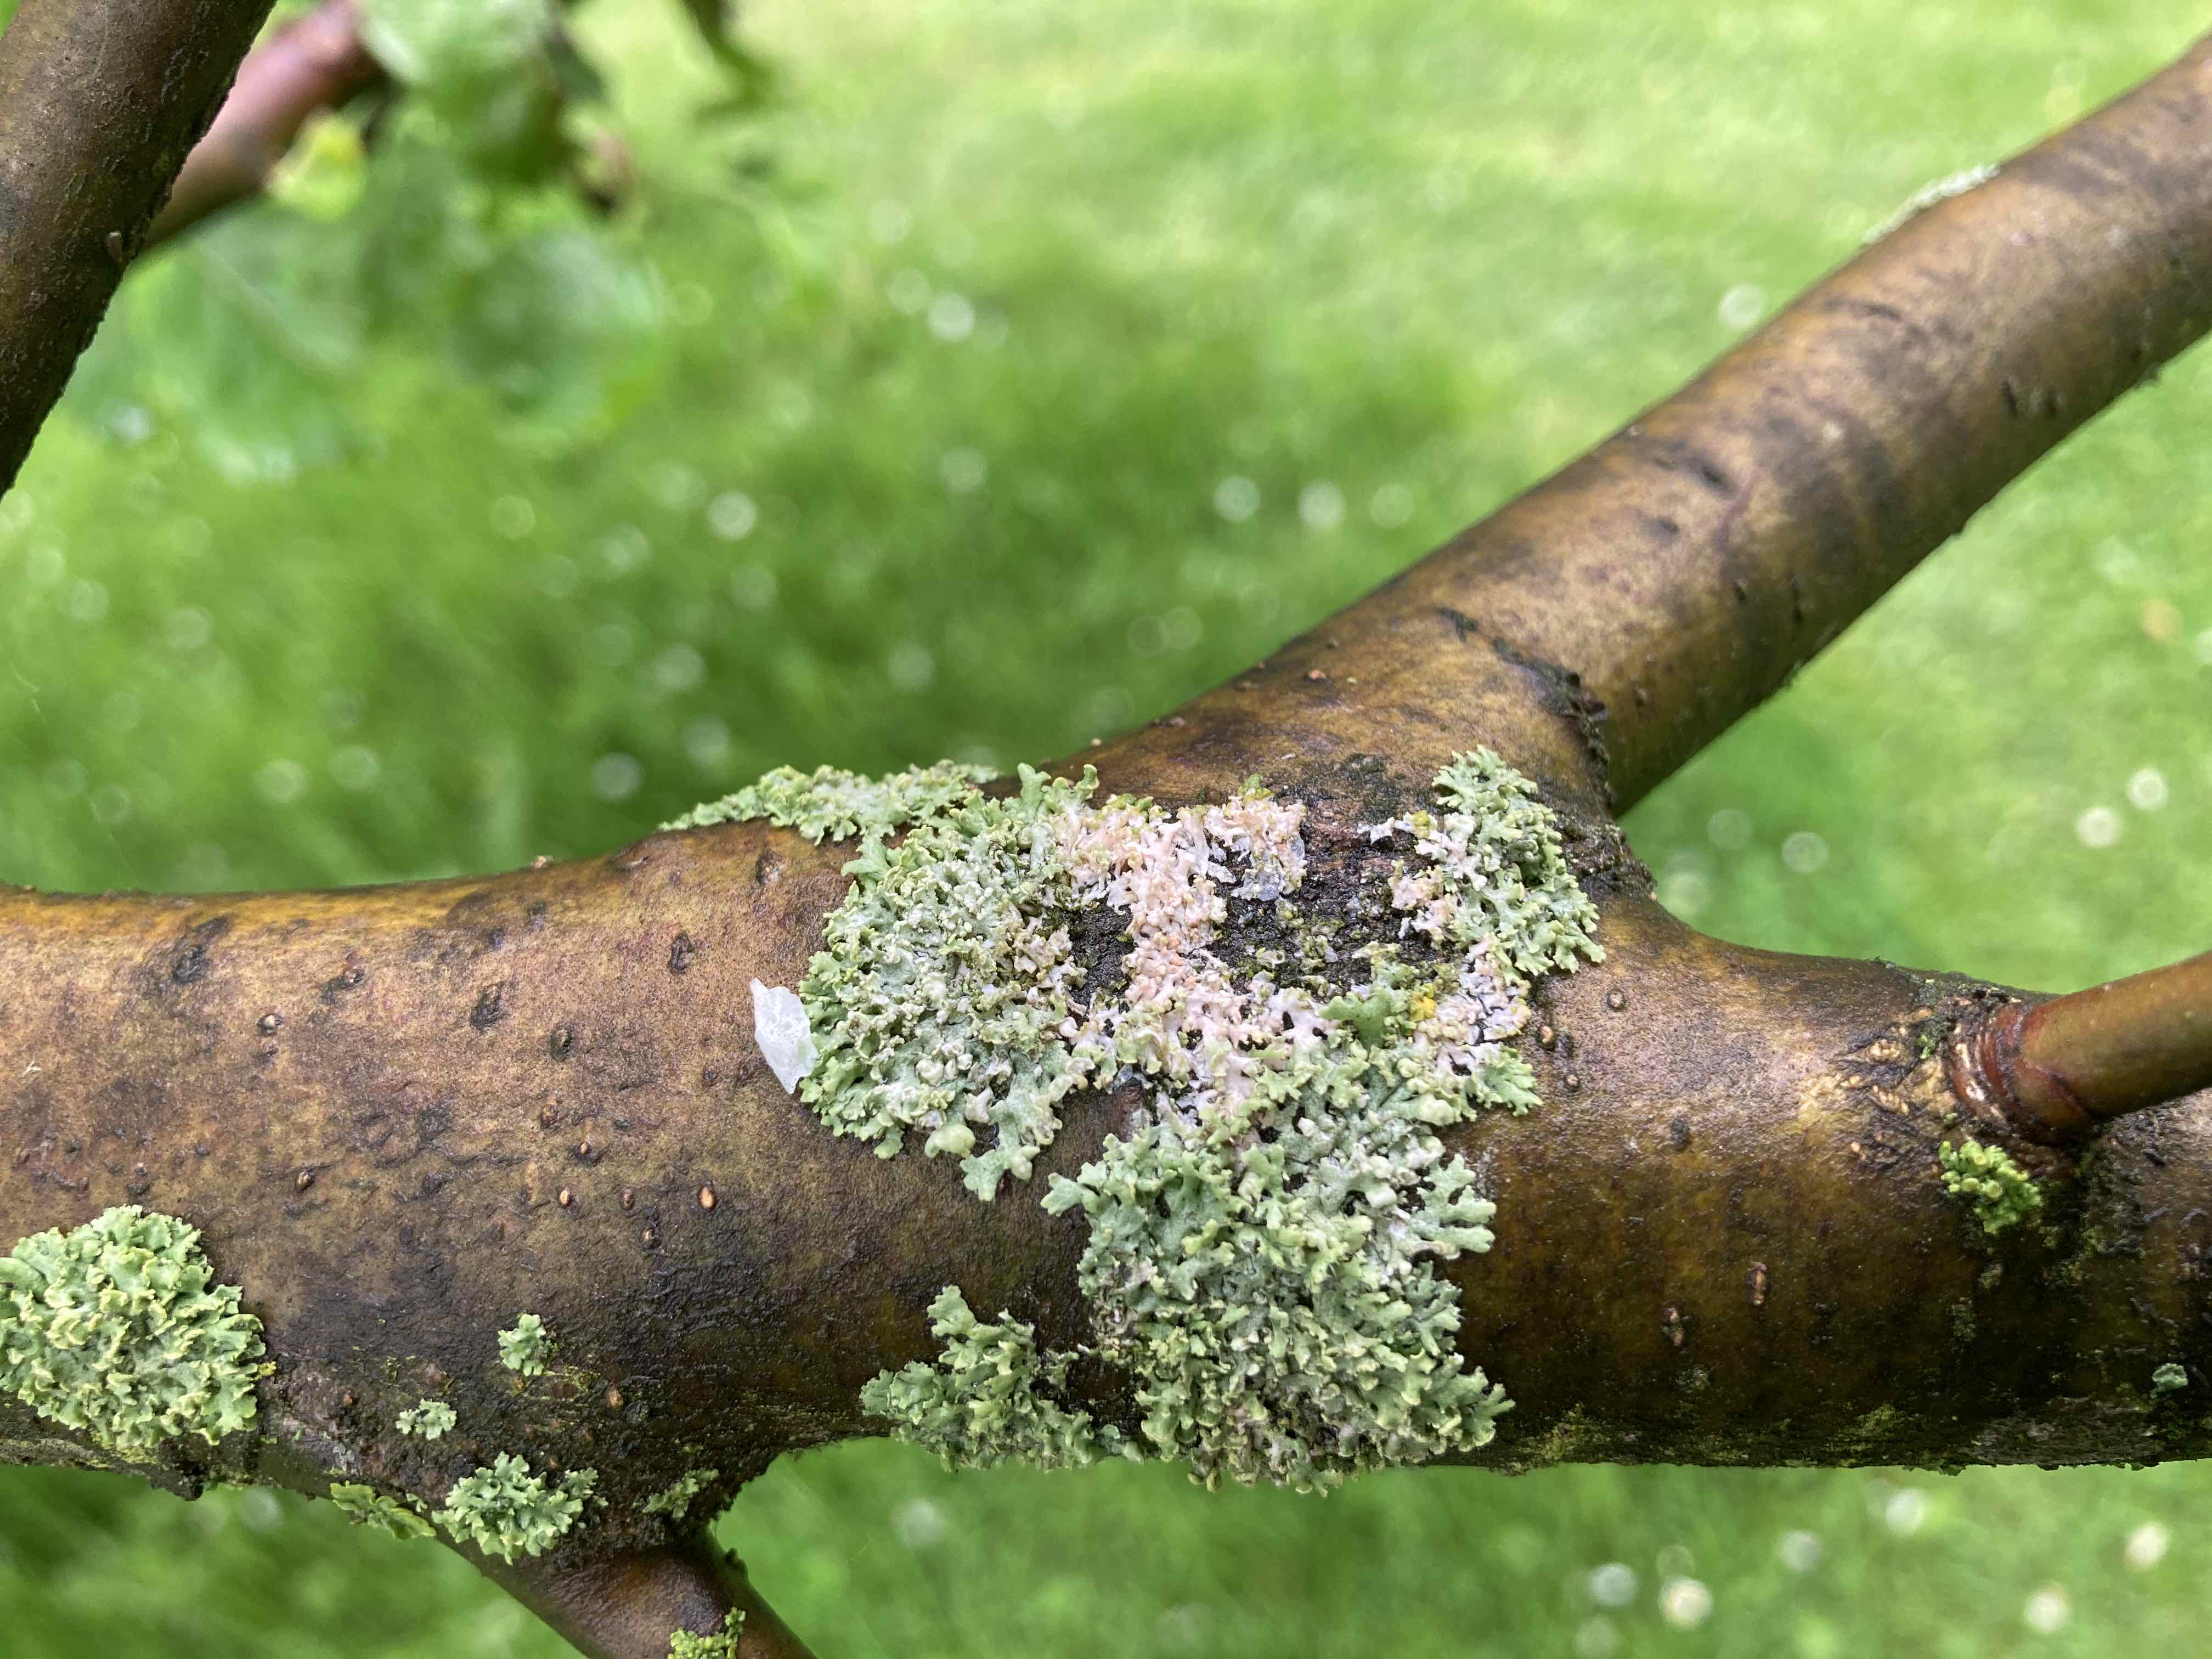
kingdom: Fungi
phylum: Basidiomycota
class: Agaricomycetes
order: Corticiales
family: Corticiaceae
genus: Erythricium
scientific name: Erythricium aurantiacum
